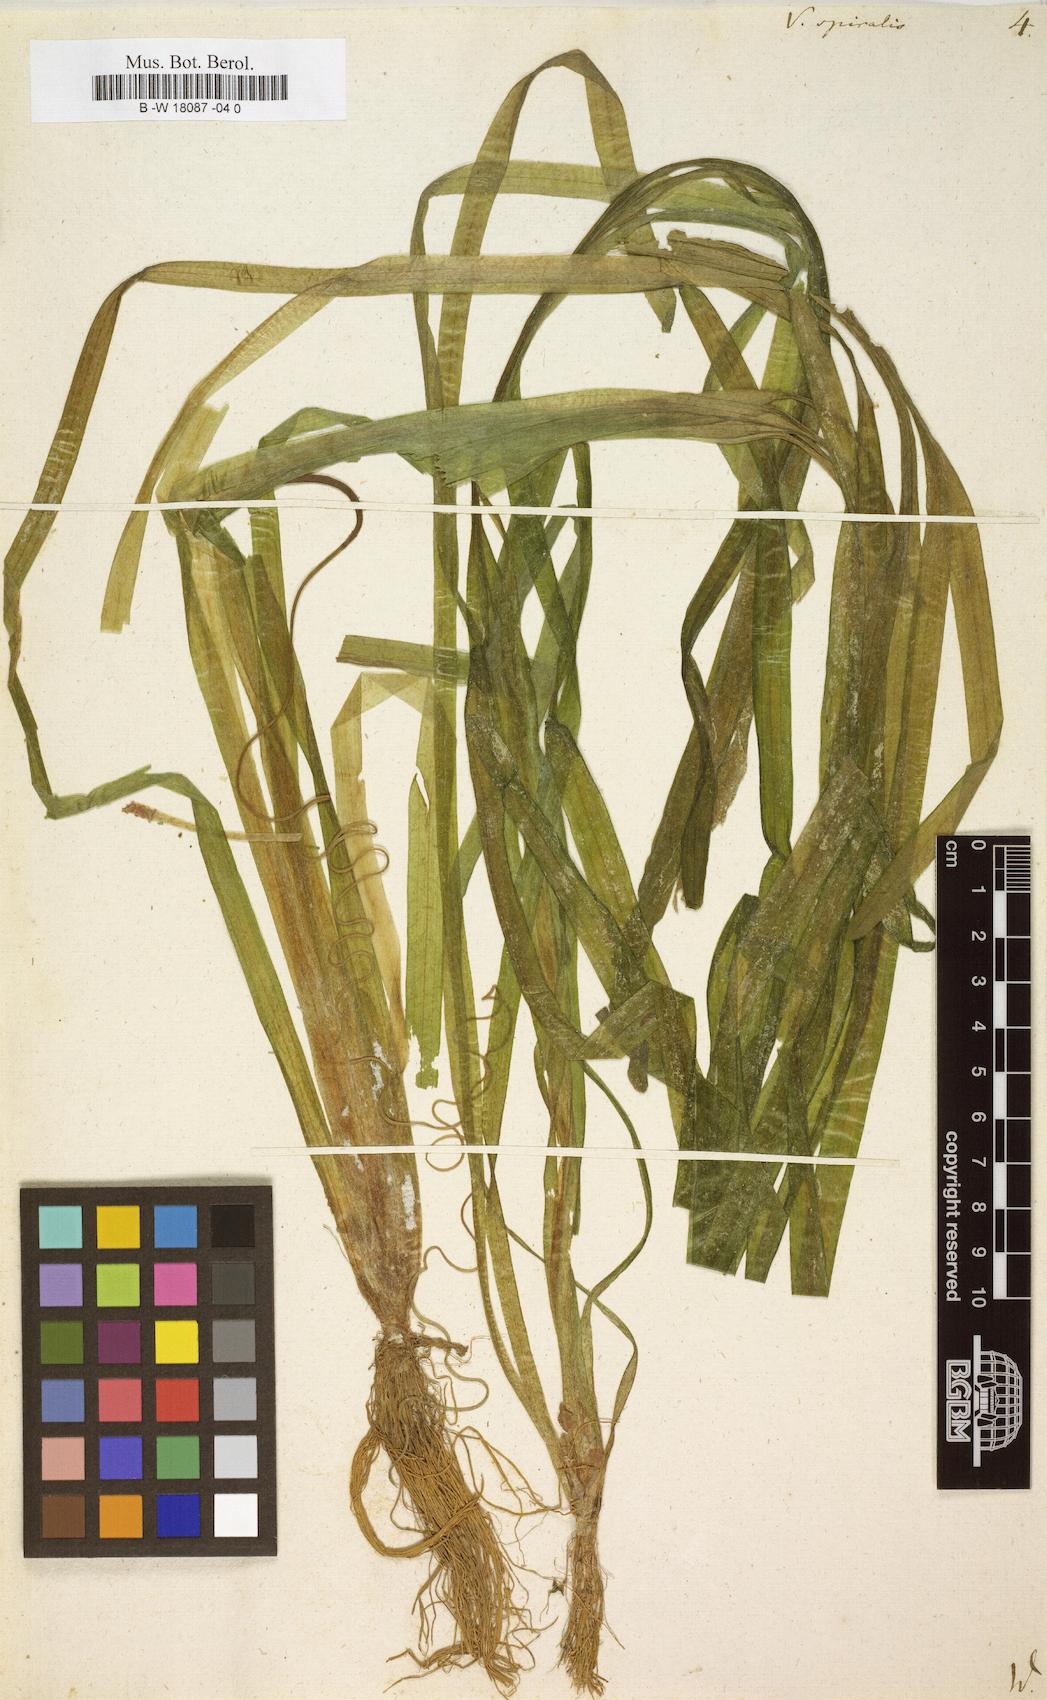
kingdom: Plantae
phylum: Tracheophyta
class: Liliopsida
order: Alismatales
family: Hydrocharitaceae
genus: Vallisneria
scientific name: Vallisneria spiralis
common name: Tapegrass
